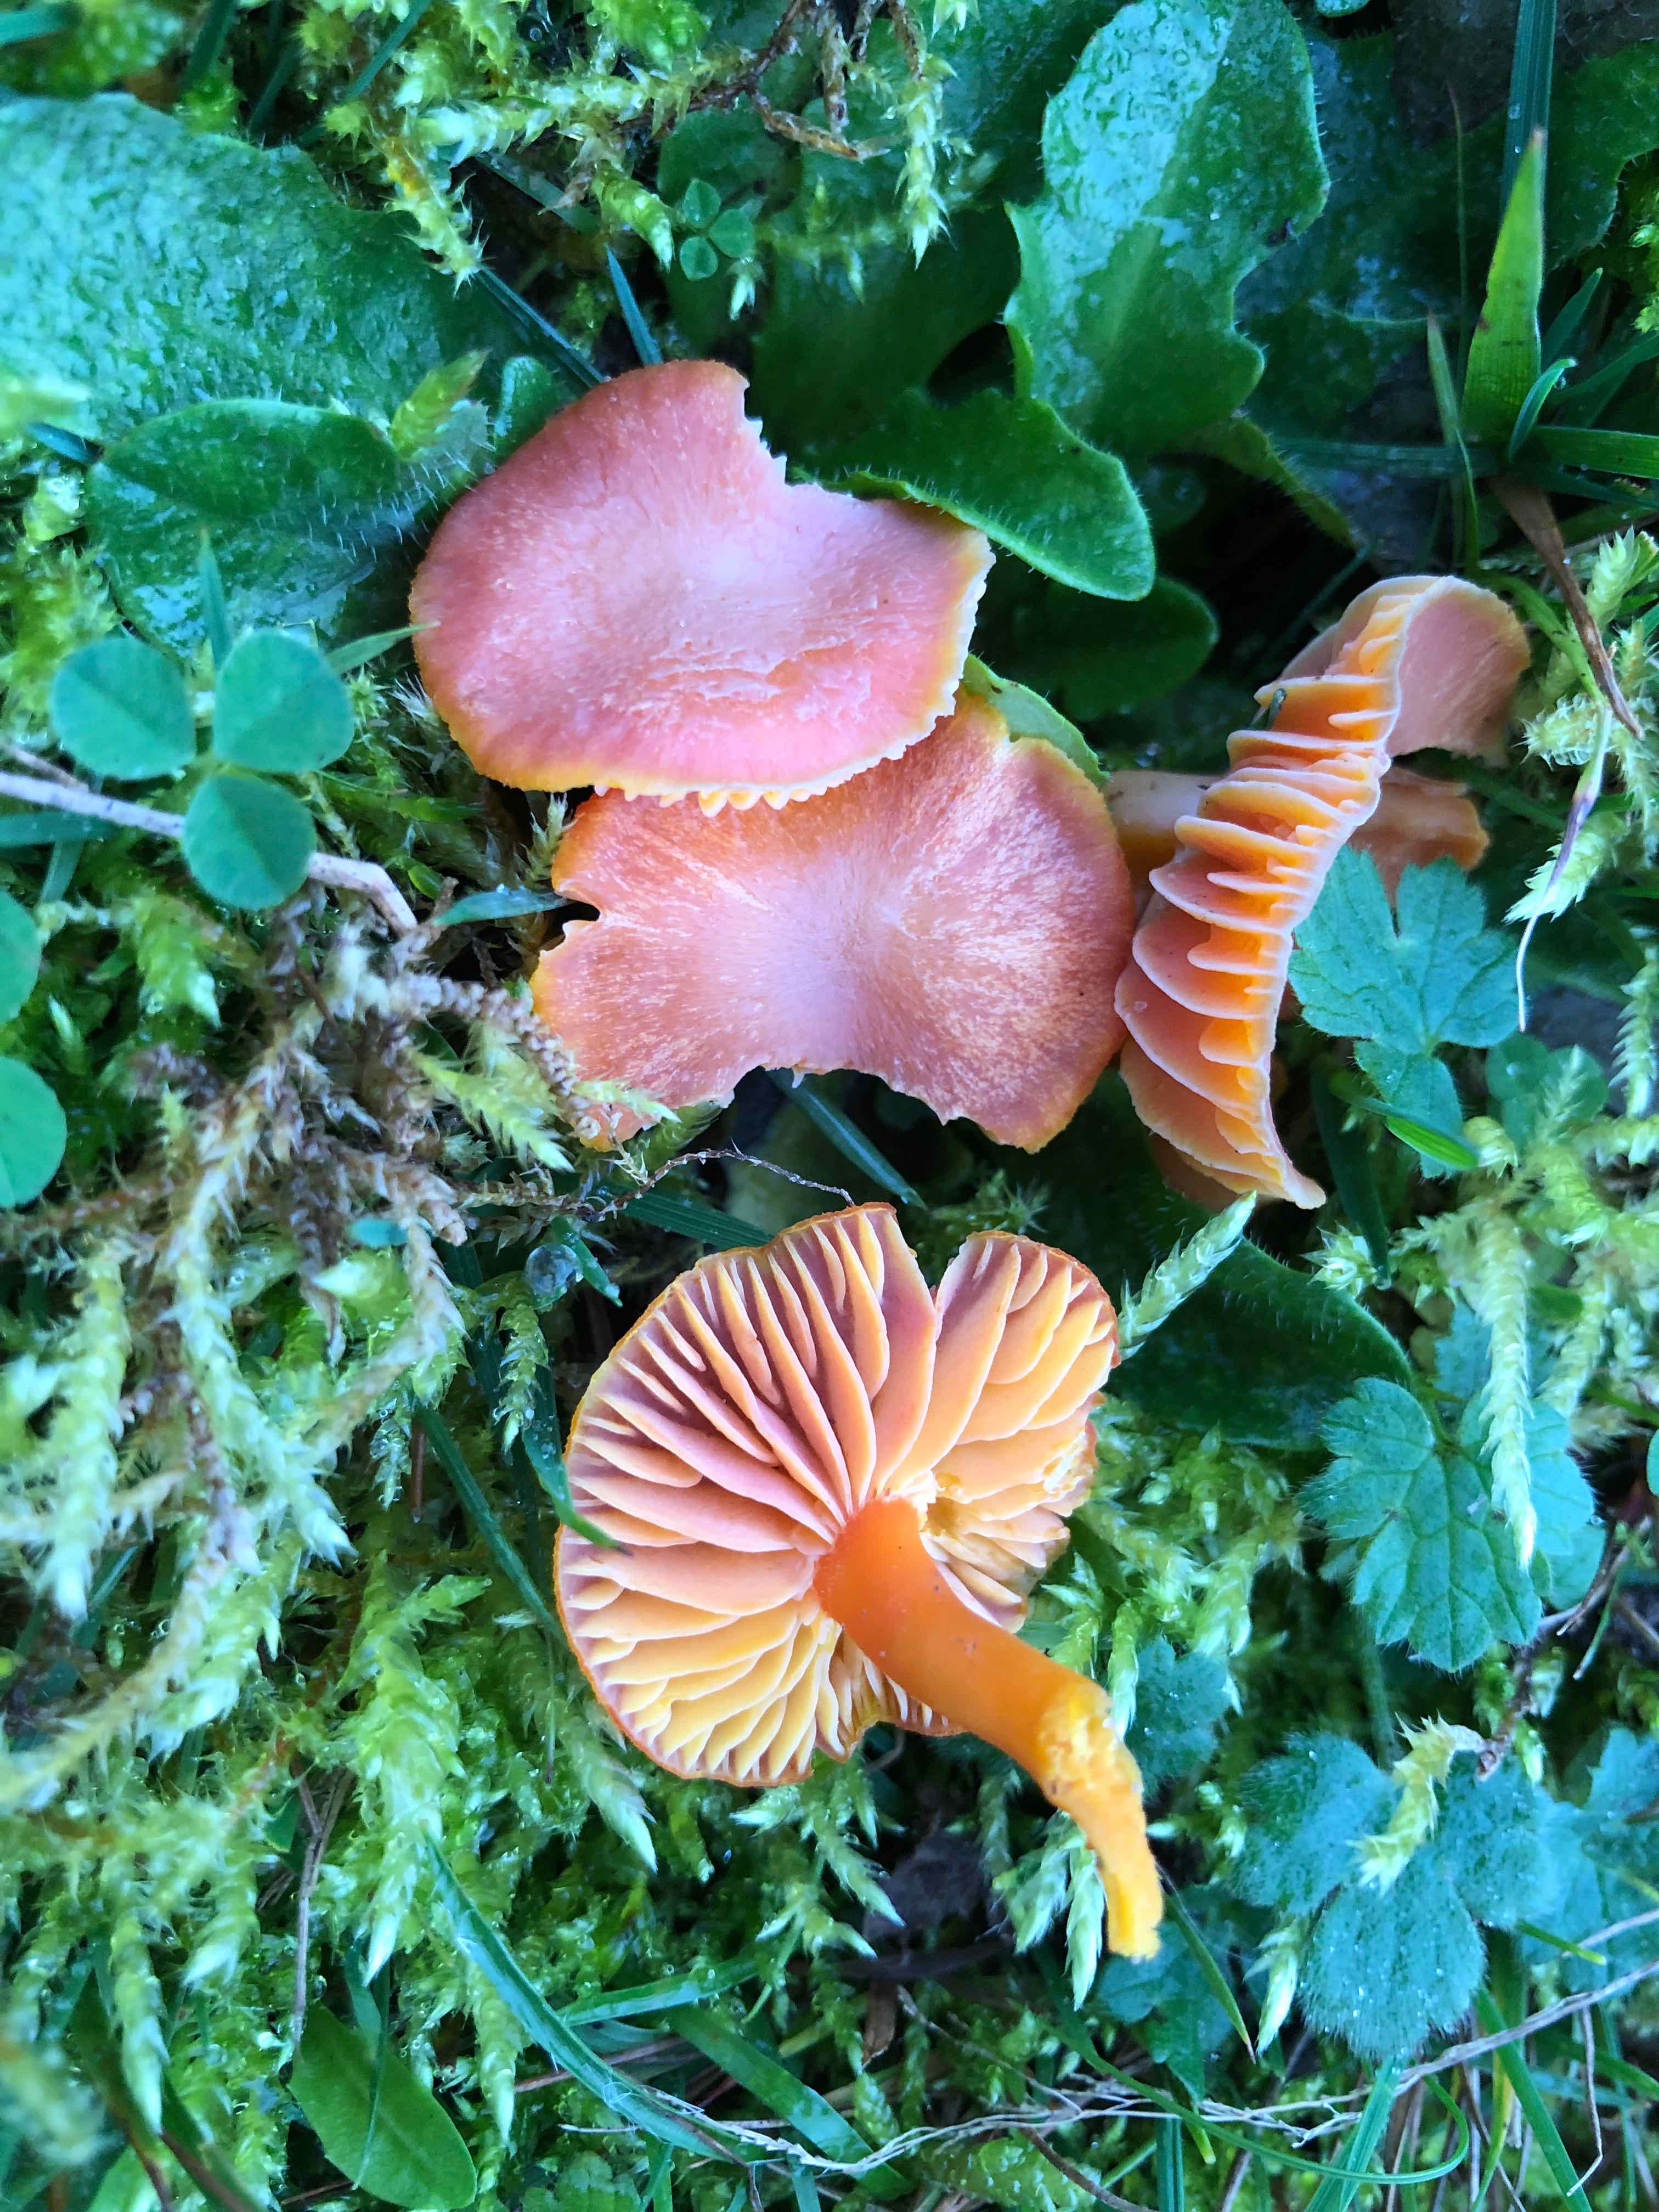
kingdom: Fungi
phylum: Basidiomycota
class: Agaricomycetes
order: Agaricales
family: Hygrophoraceae
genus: Hygrocybe
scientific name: Hygrocybe
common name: vokshat
